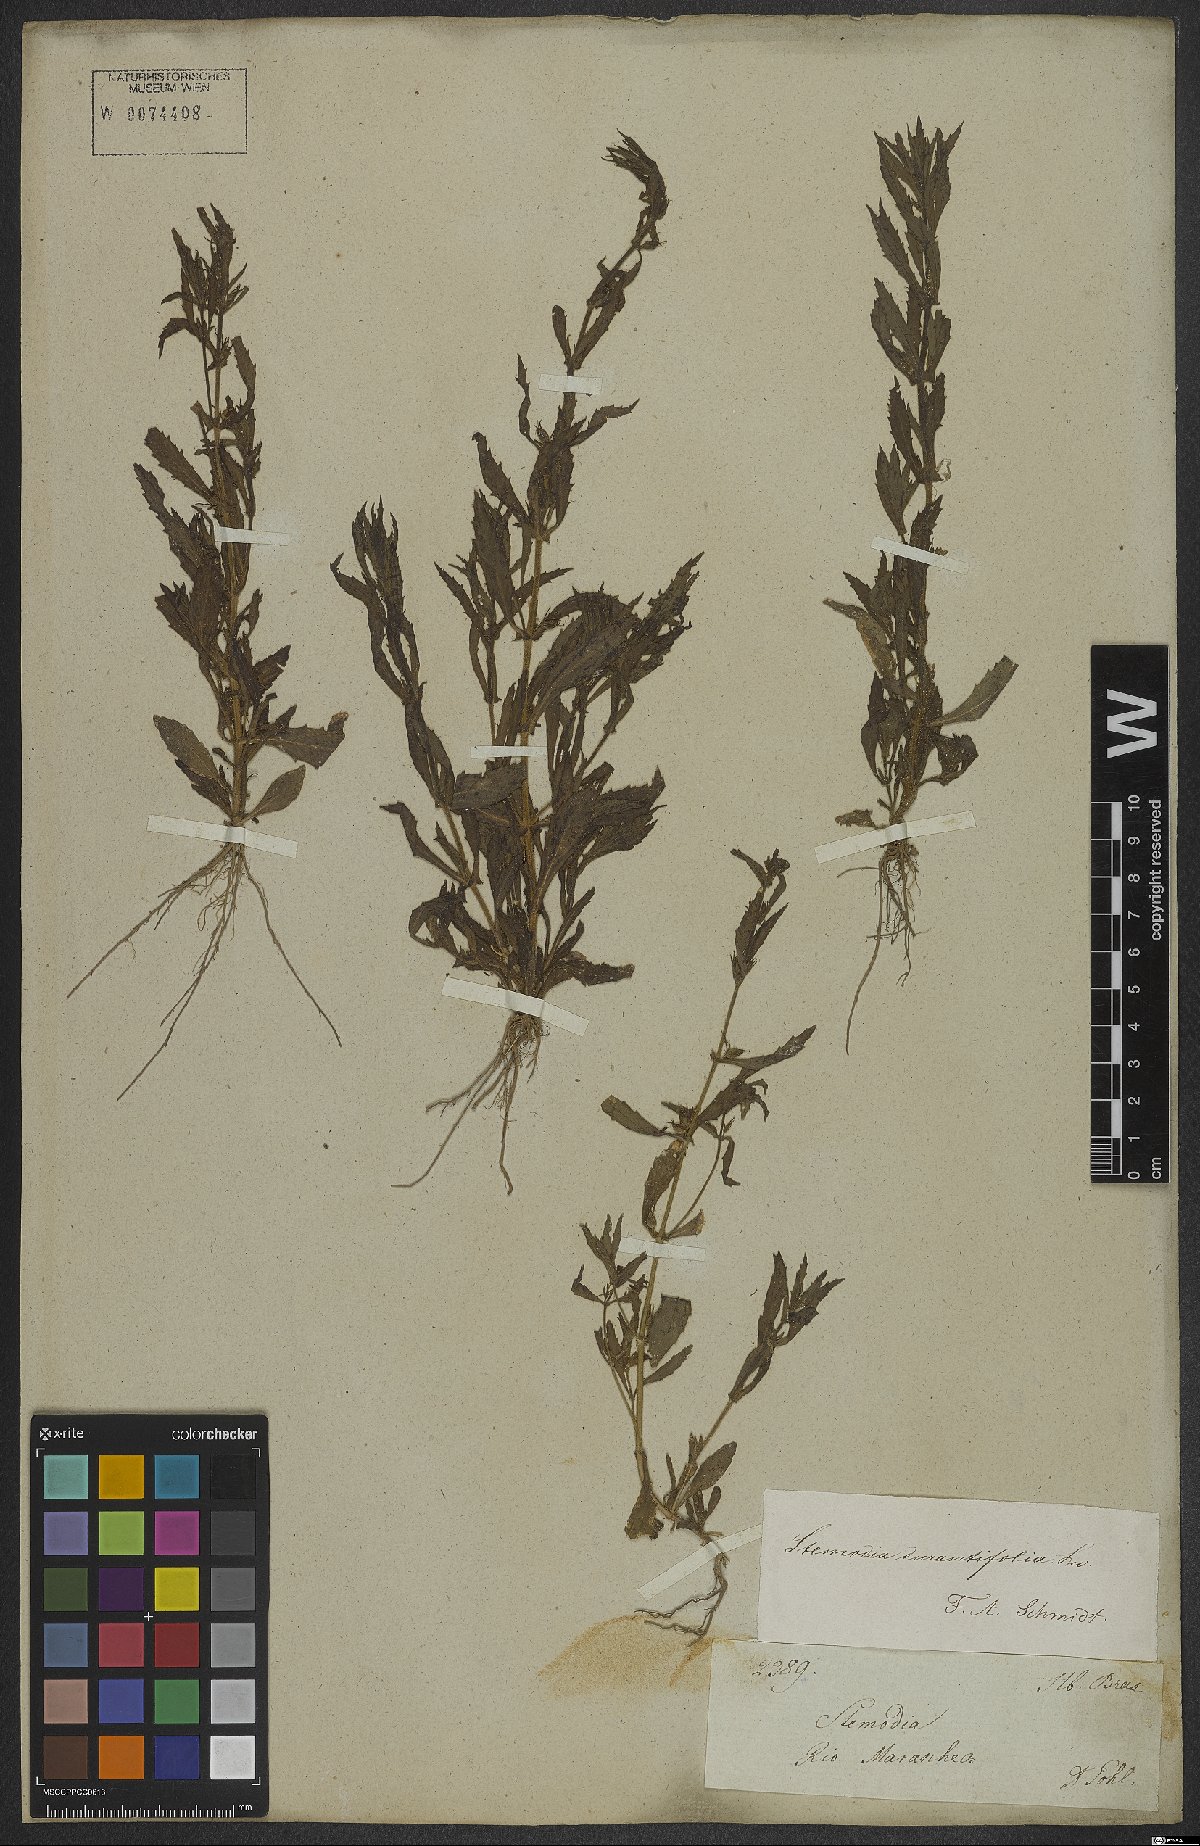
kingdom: Plantae
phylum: Tracheophyta
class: Magnoliopsida
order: Lamiales
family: Plantaginaceae
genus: Stemodia
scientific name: Stemodia durantifolia
